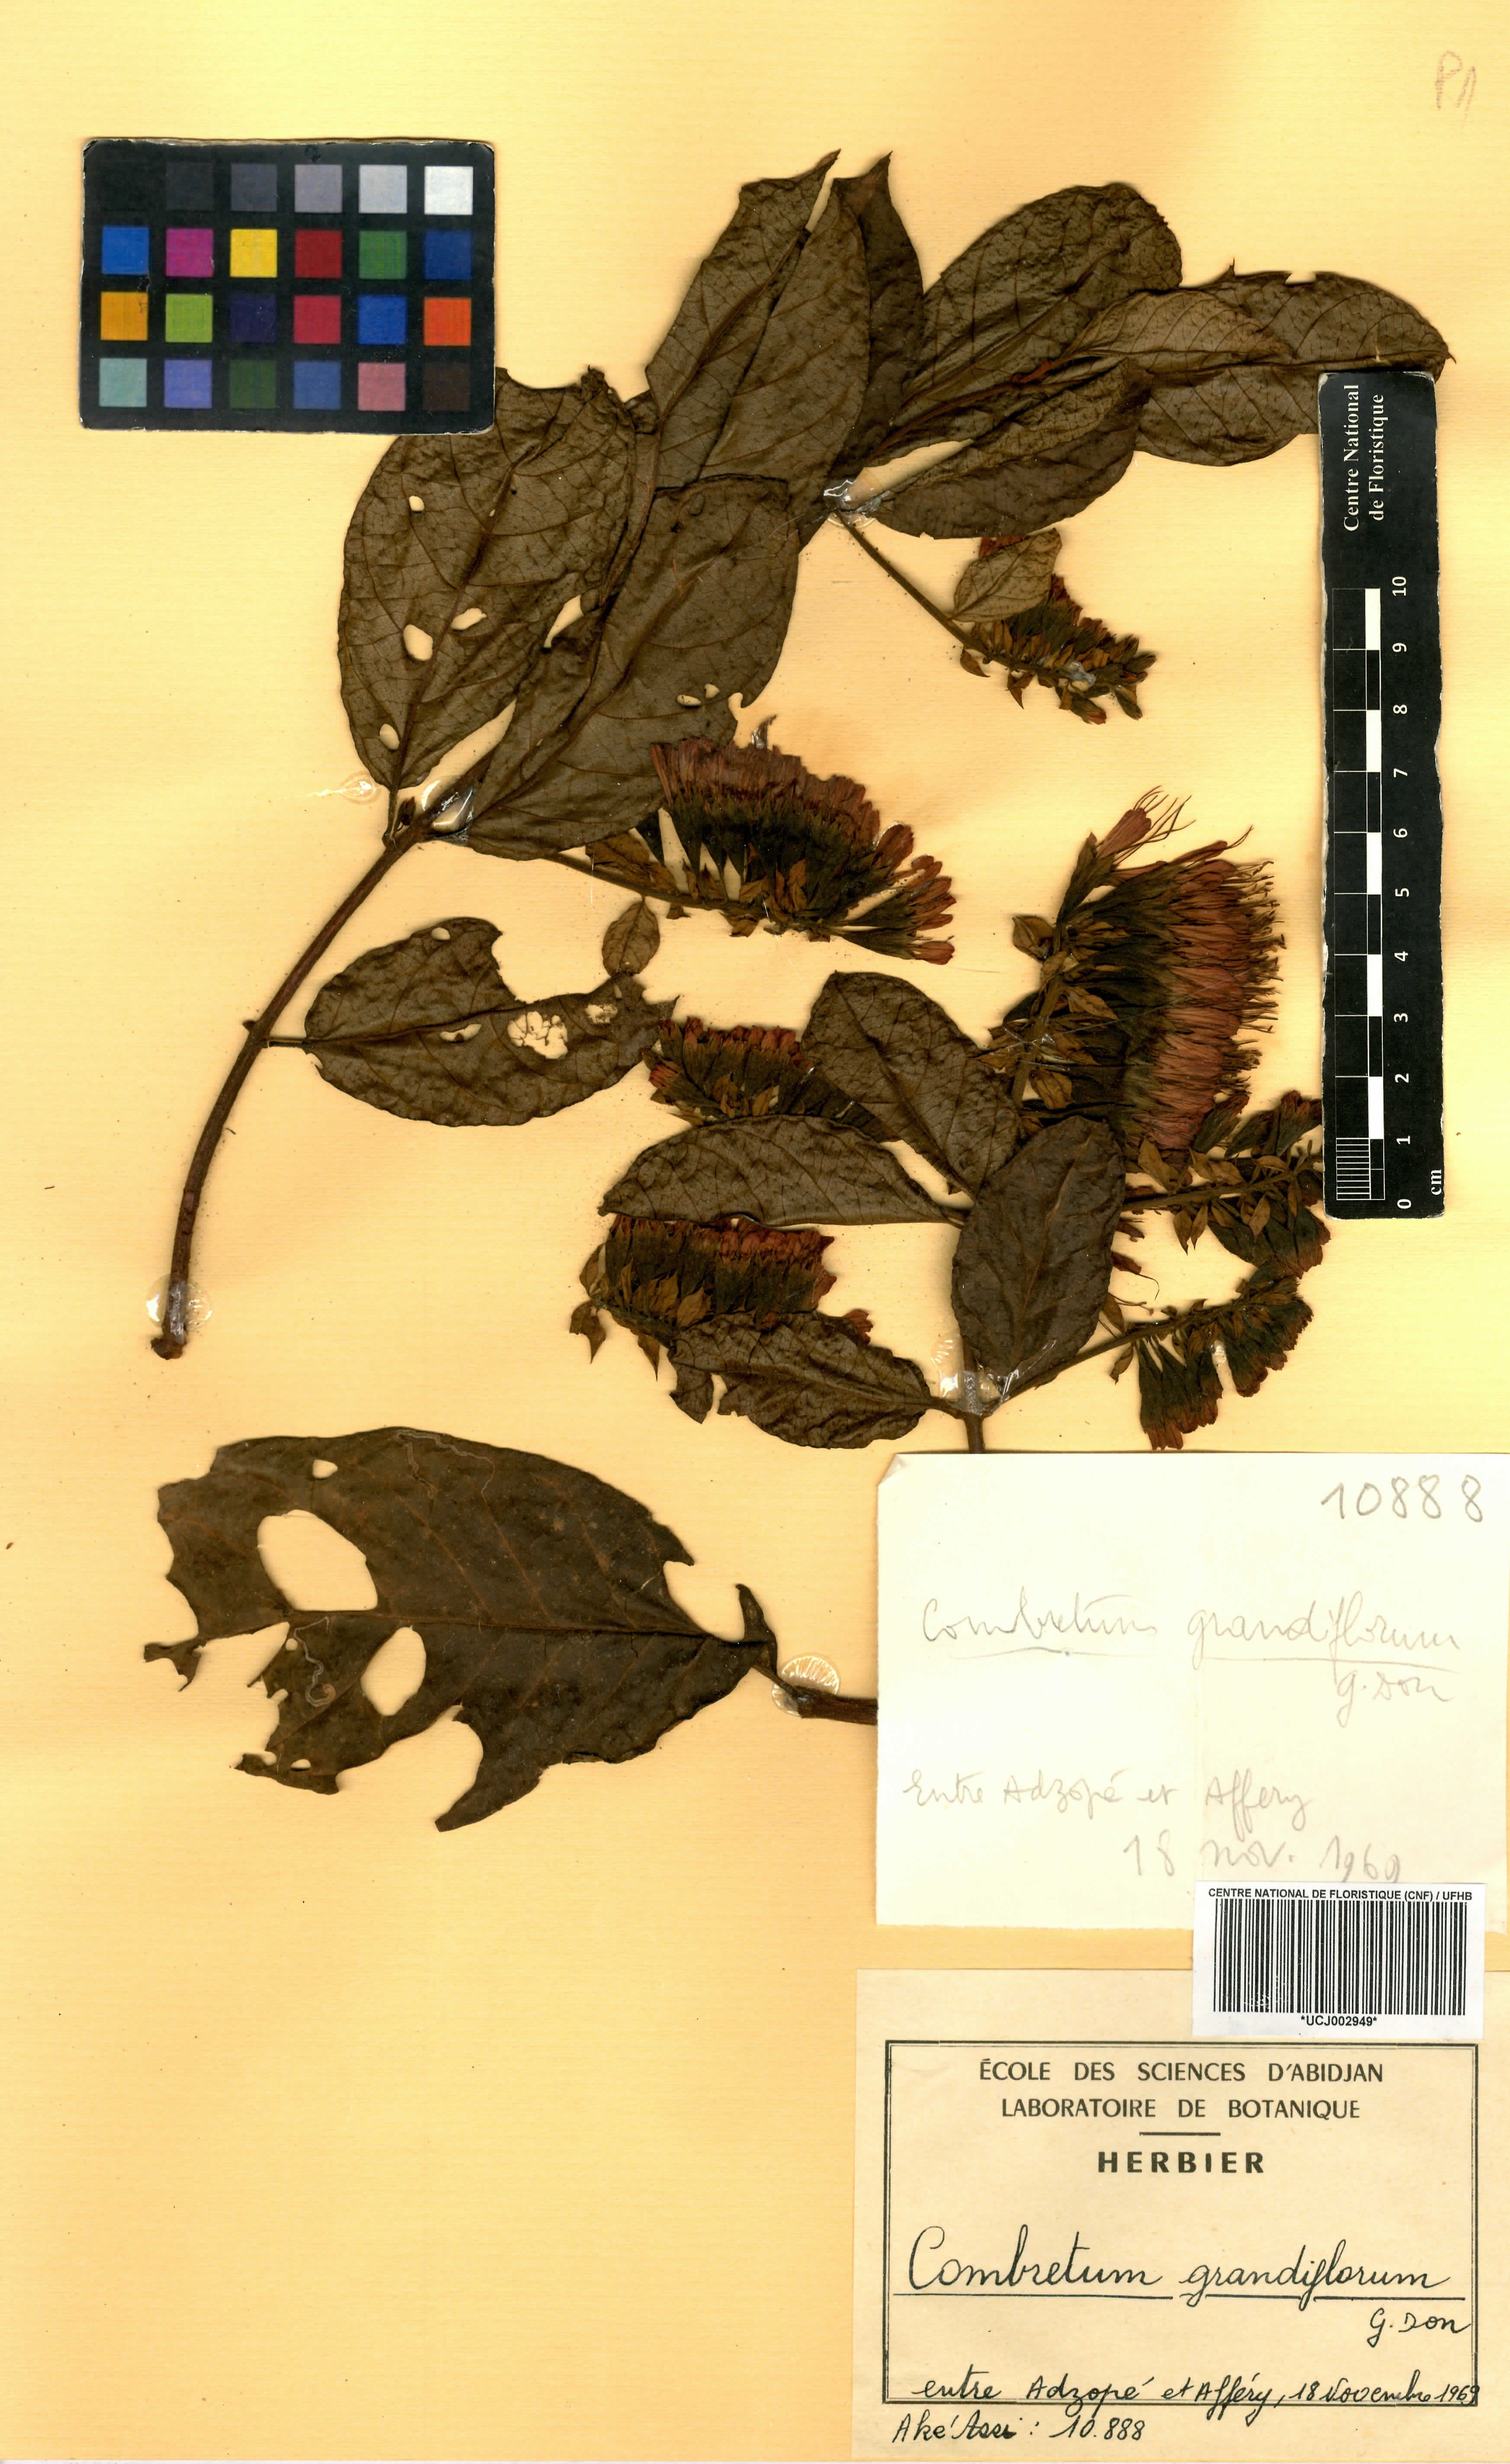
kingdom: Plantae
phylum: Tracheophyta
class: Magnoliopsida
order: Myrtales
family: Combretaceae
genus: Combretum
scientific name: Combretum grandiflorum
